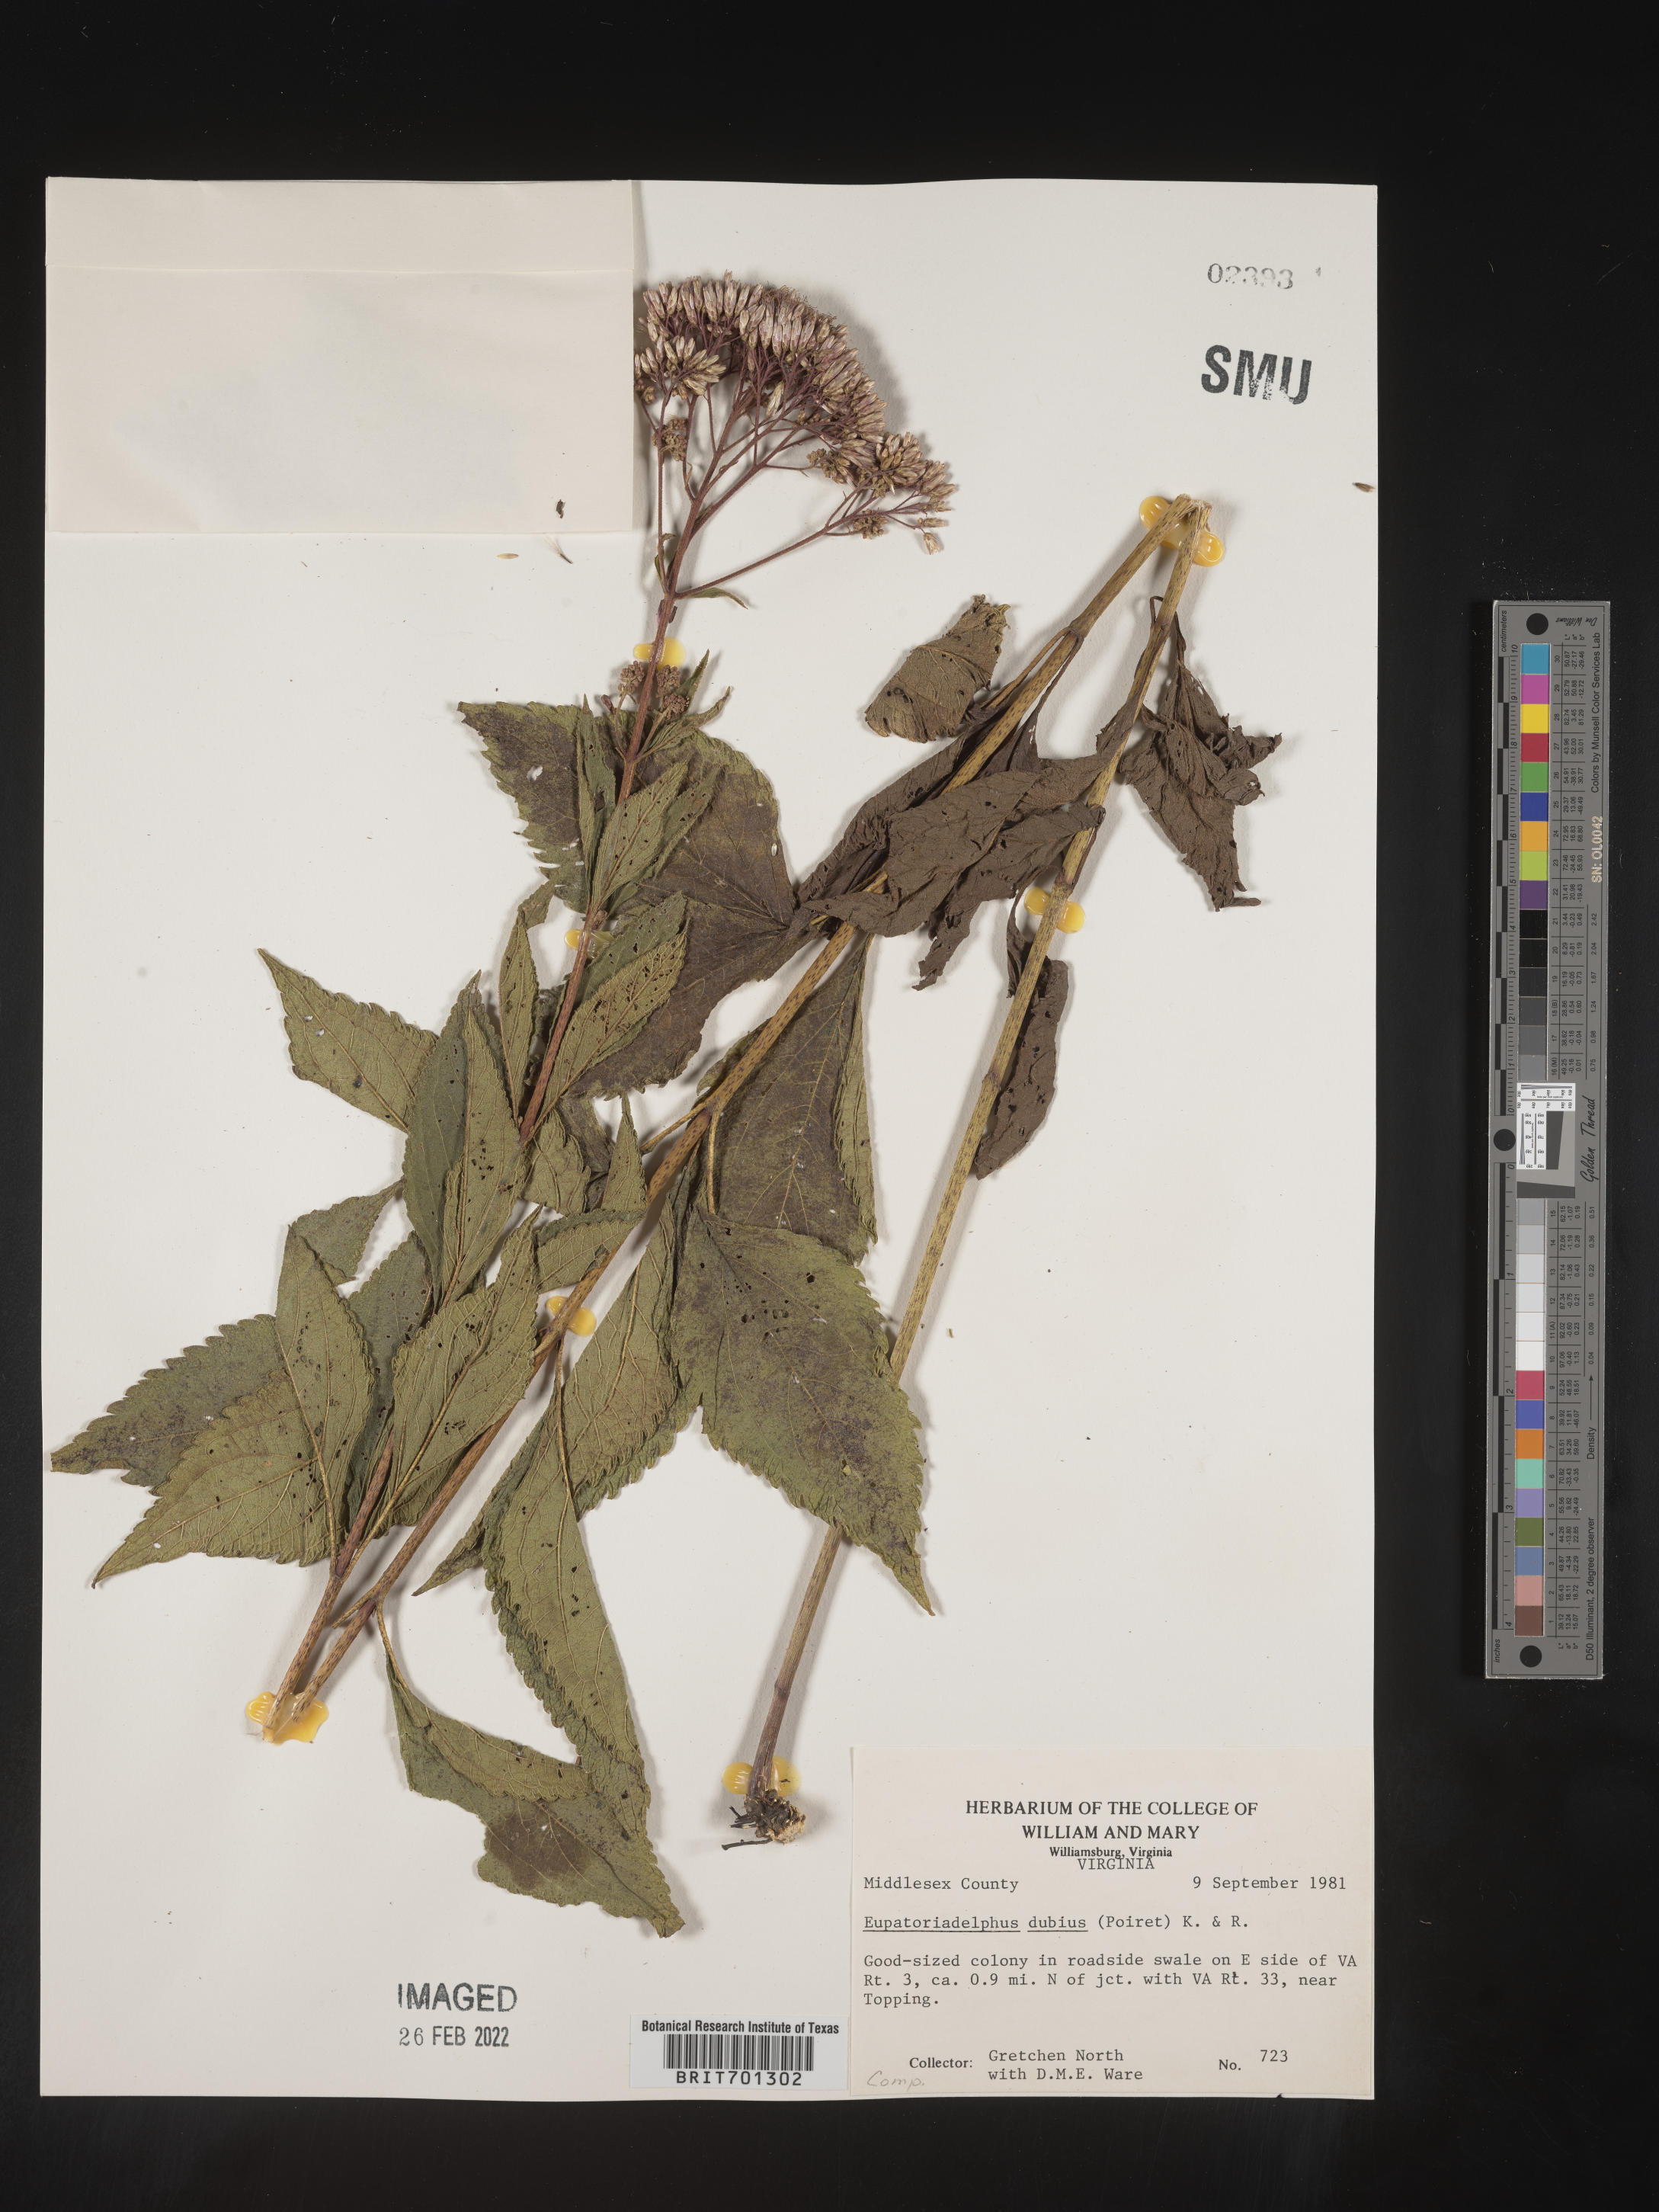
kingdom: Plantae
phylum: Tracheophyta
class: Magnoliopsida
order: Asterales
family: Asteraceae
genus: Eutrochium
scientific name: Eutrochium dubium
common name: Coastal plain joe pye weed
